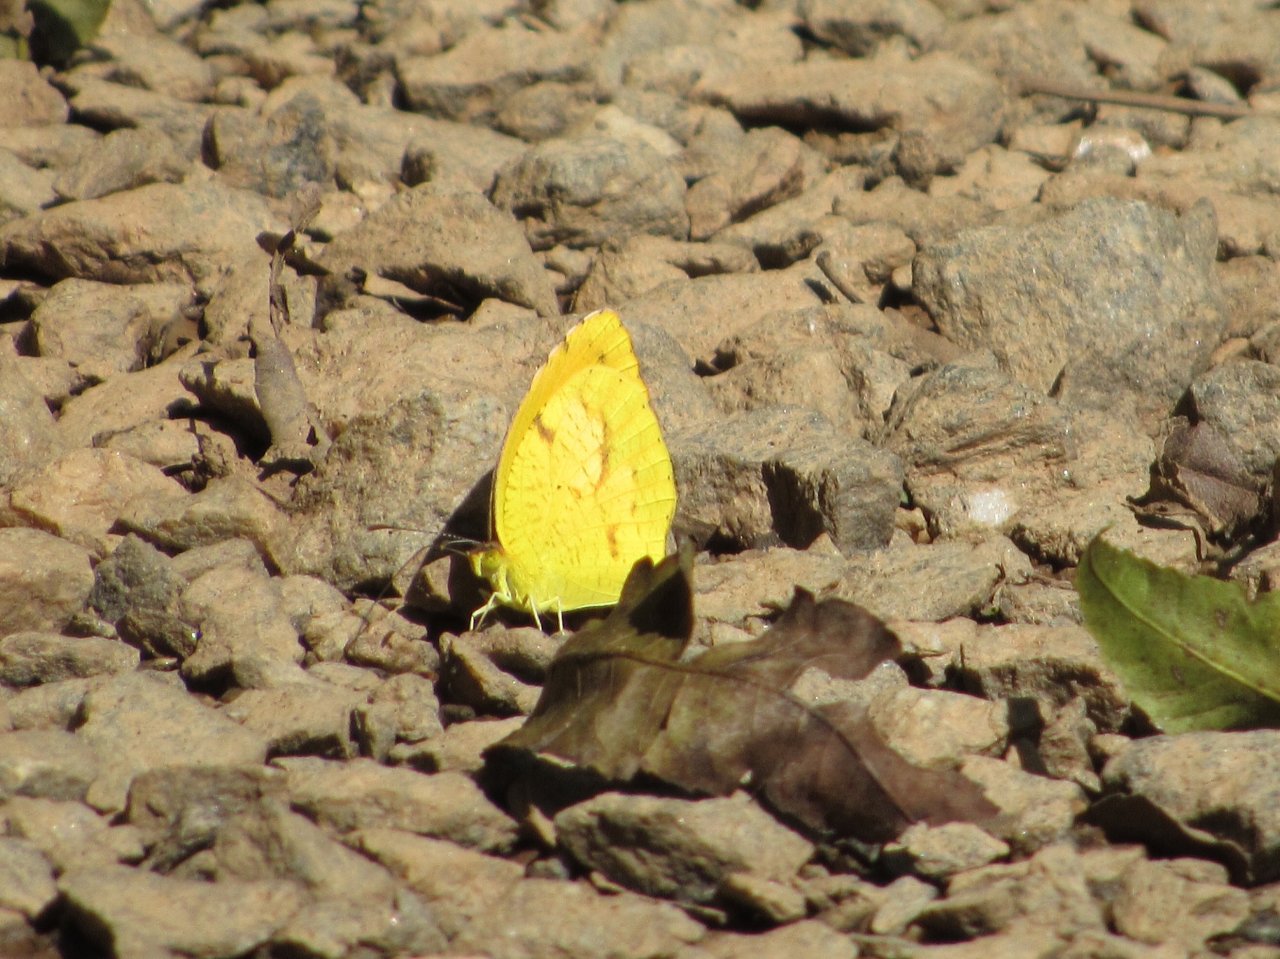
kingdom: Animalia
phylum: Arthropoda
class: Insecta
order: Lepidoptera
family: Pieridae
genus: Abaeis
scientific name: Abaeis nicippe
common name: Sleepy Orange
